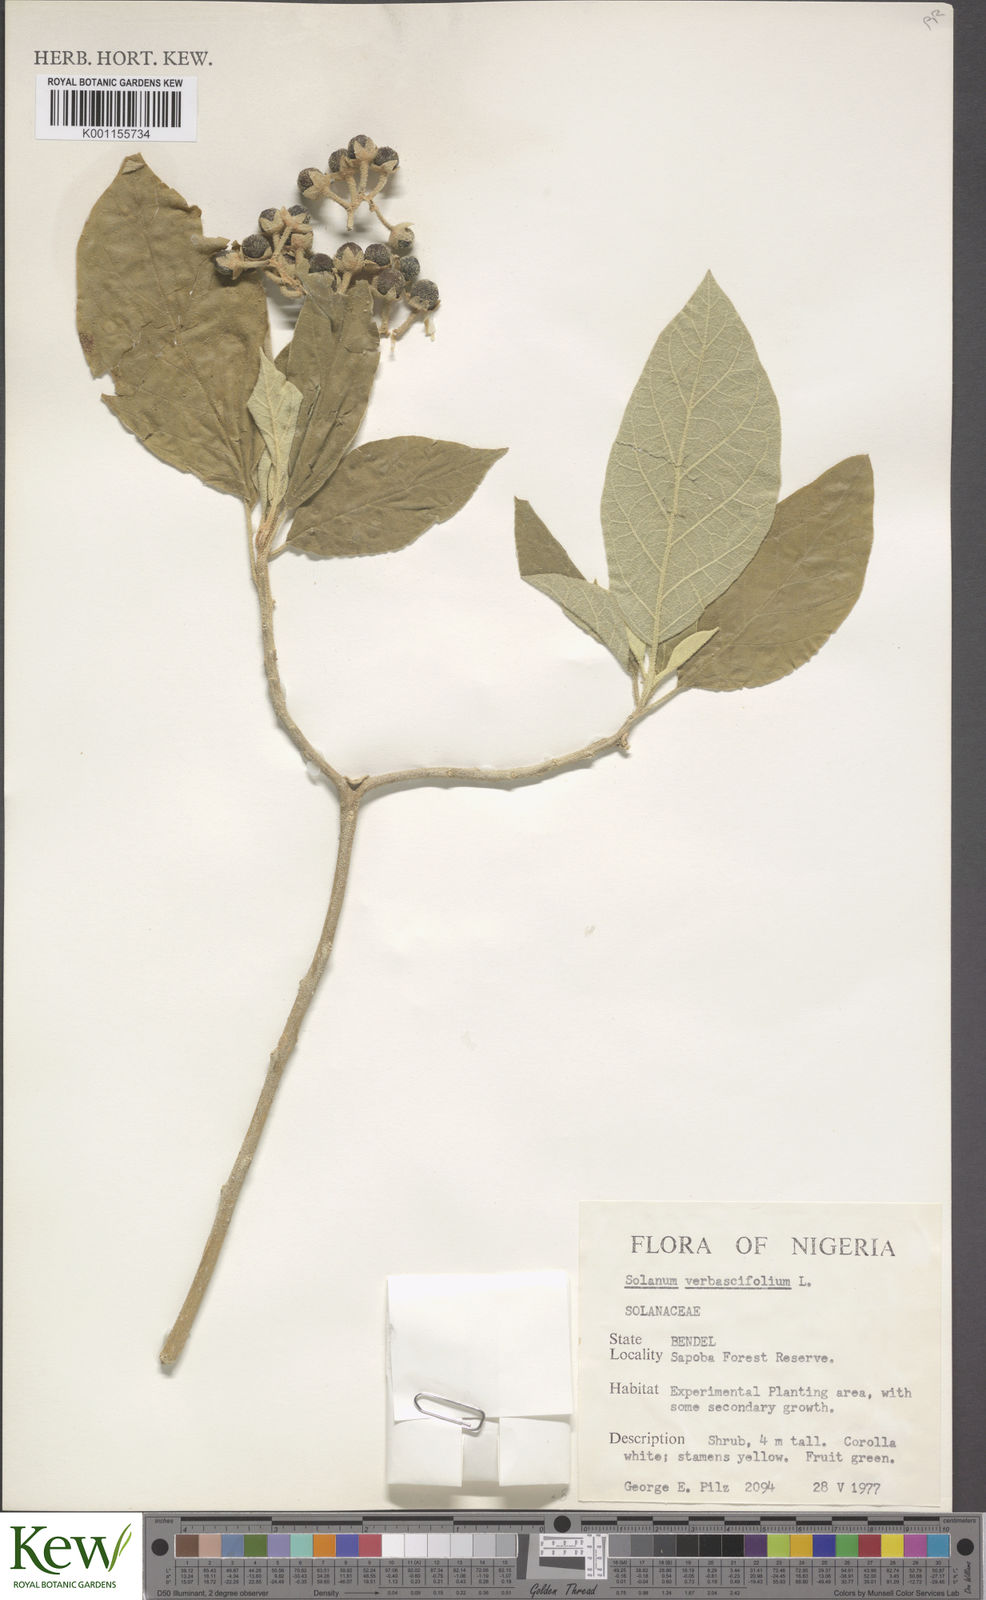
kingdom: Plantae
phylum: Tracheophyta
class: Magnoliopsida
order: Solanales
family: Solanaceae
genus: Solanum
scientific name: Solanum erianthum
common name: Tobacco-tree
